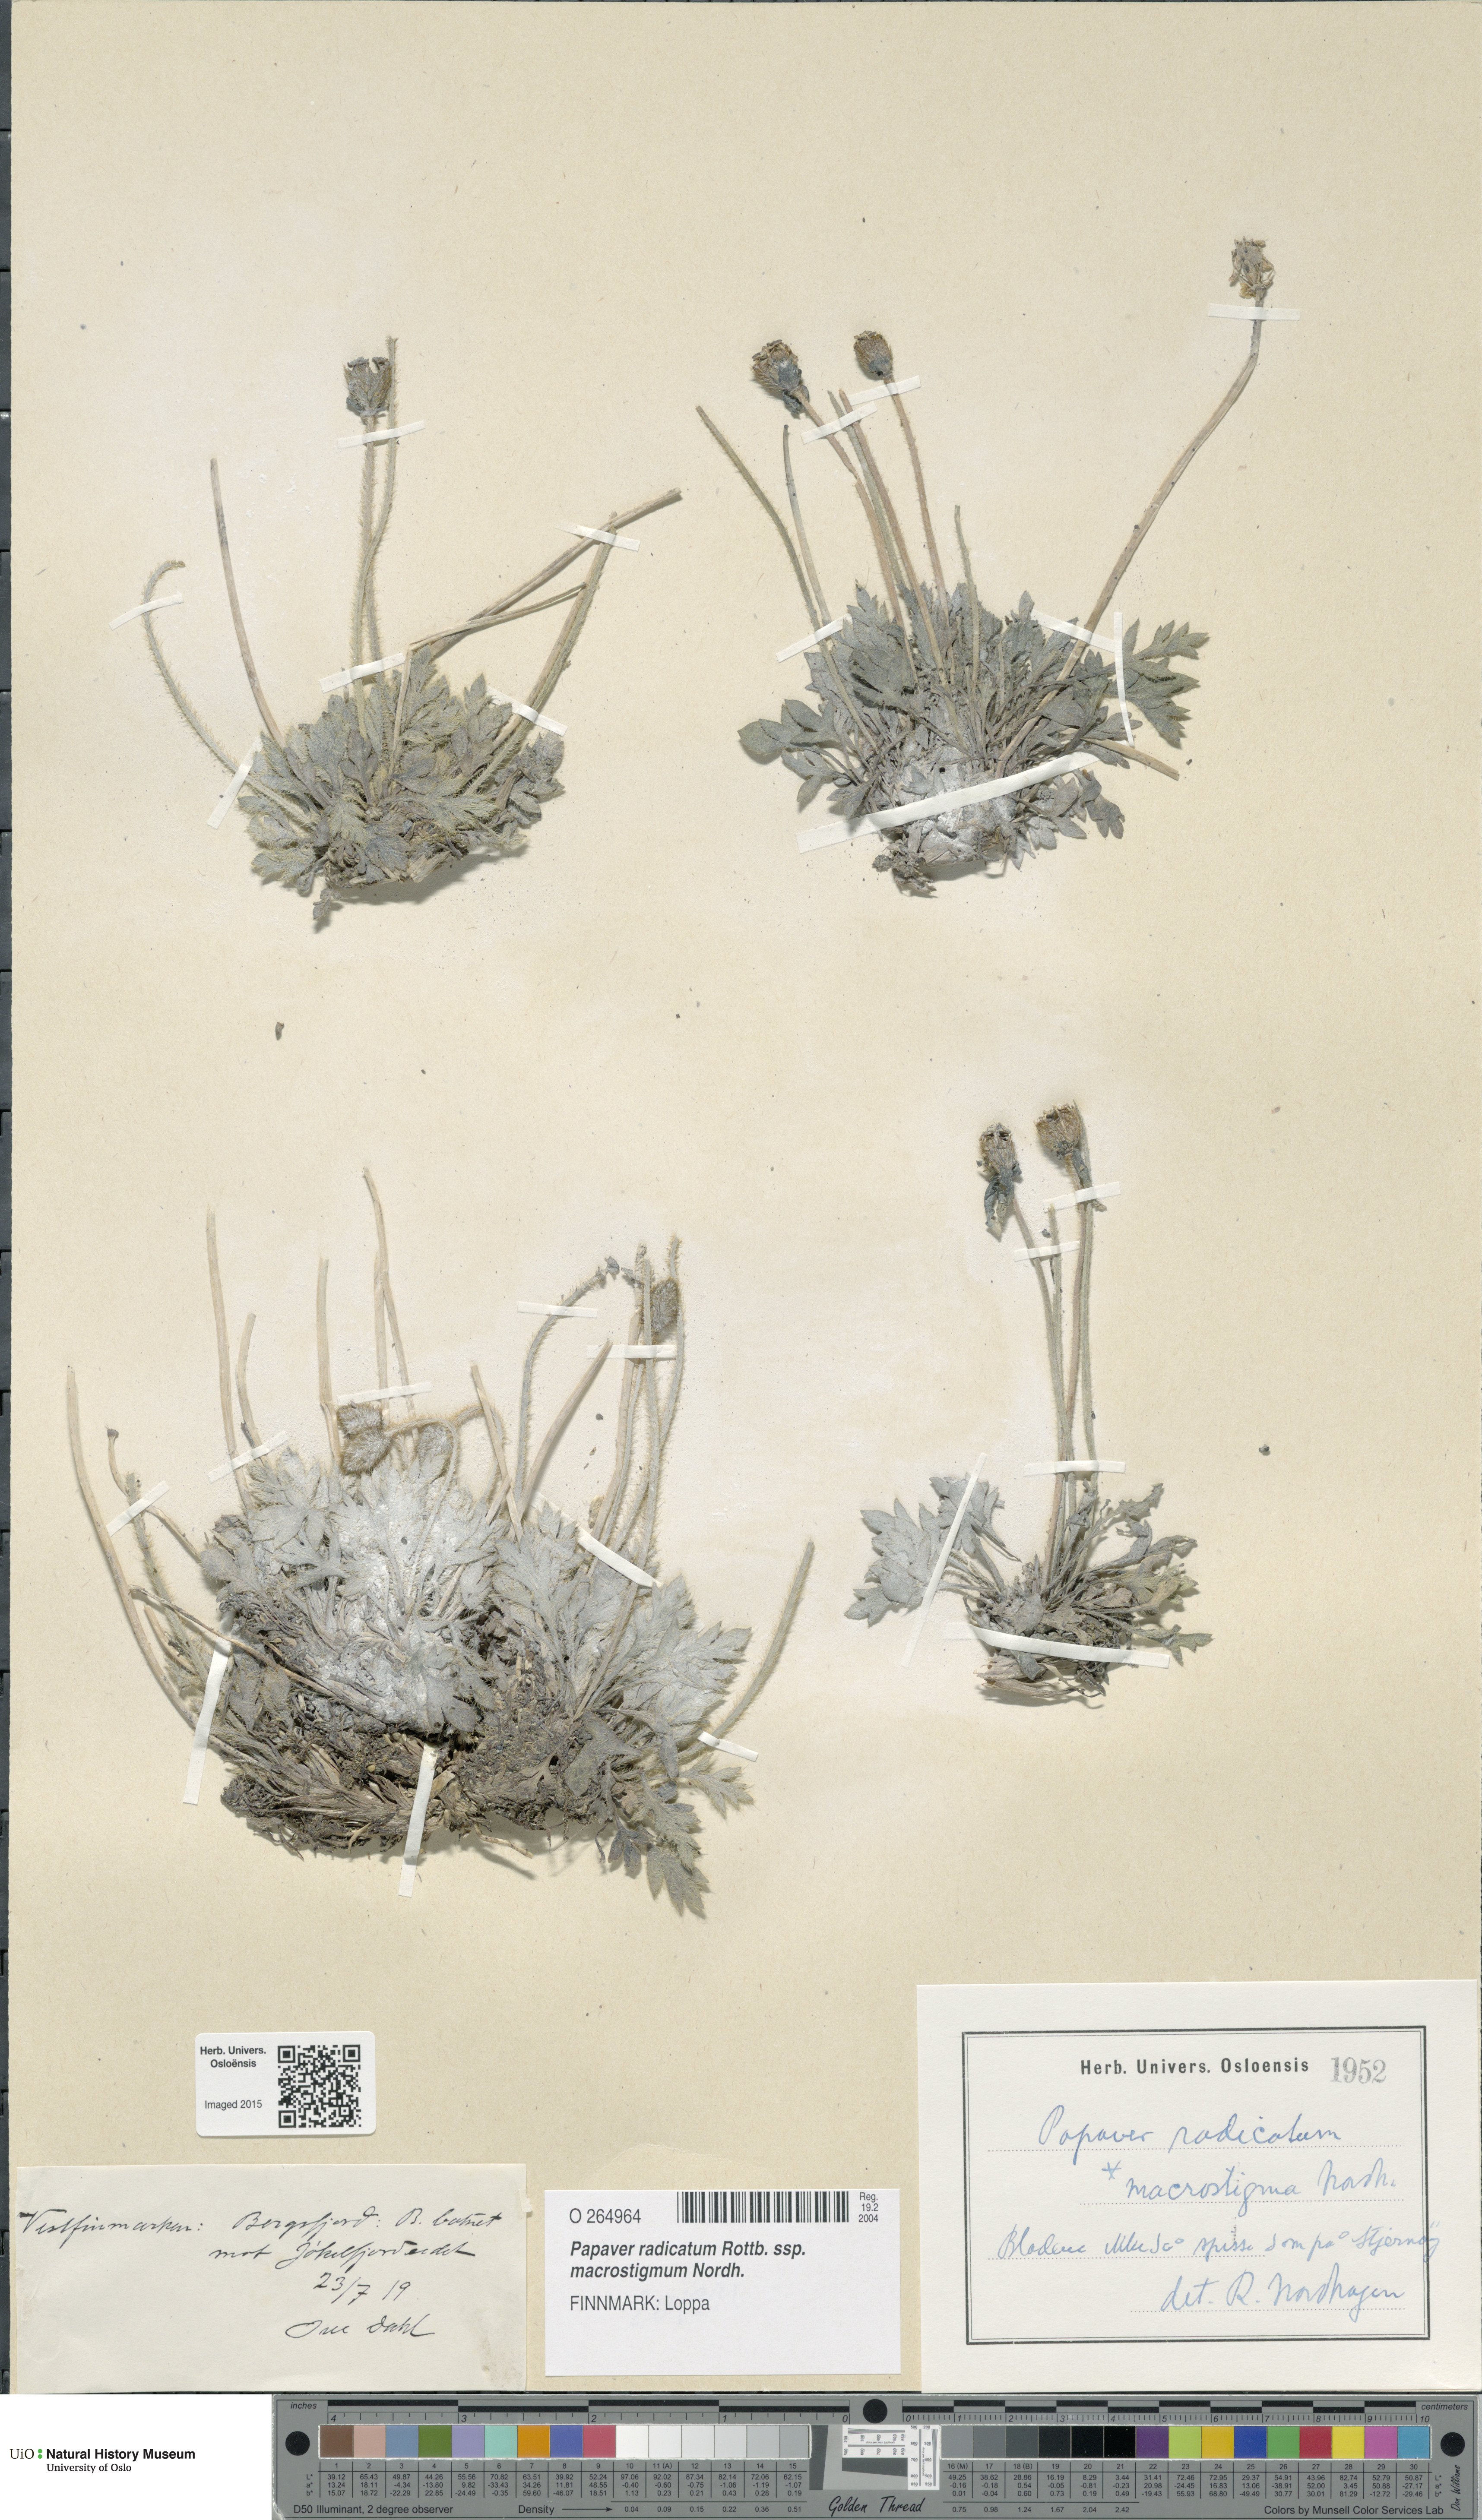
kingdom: Plantae
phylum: Tracheophyta
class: Magnoliopsida
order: Ranunculales
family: Papaveraceae
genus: Papaver
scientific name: Papaver radicatum
